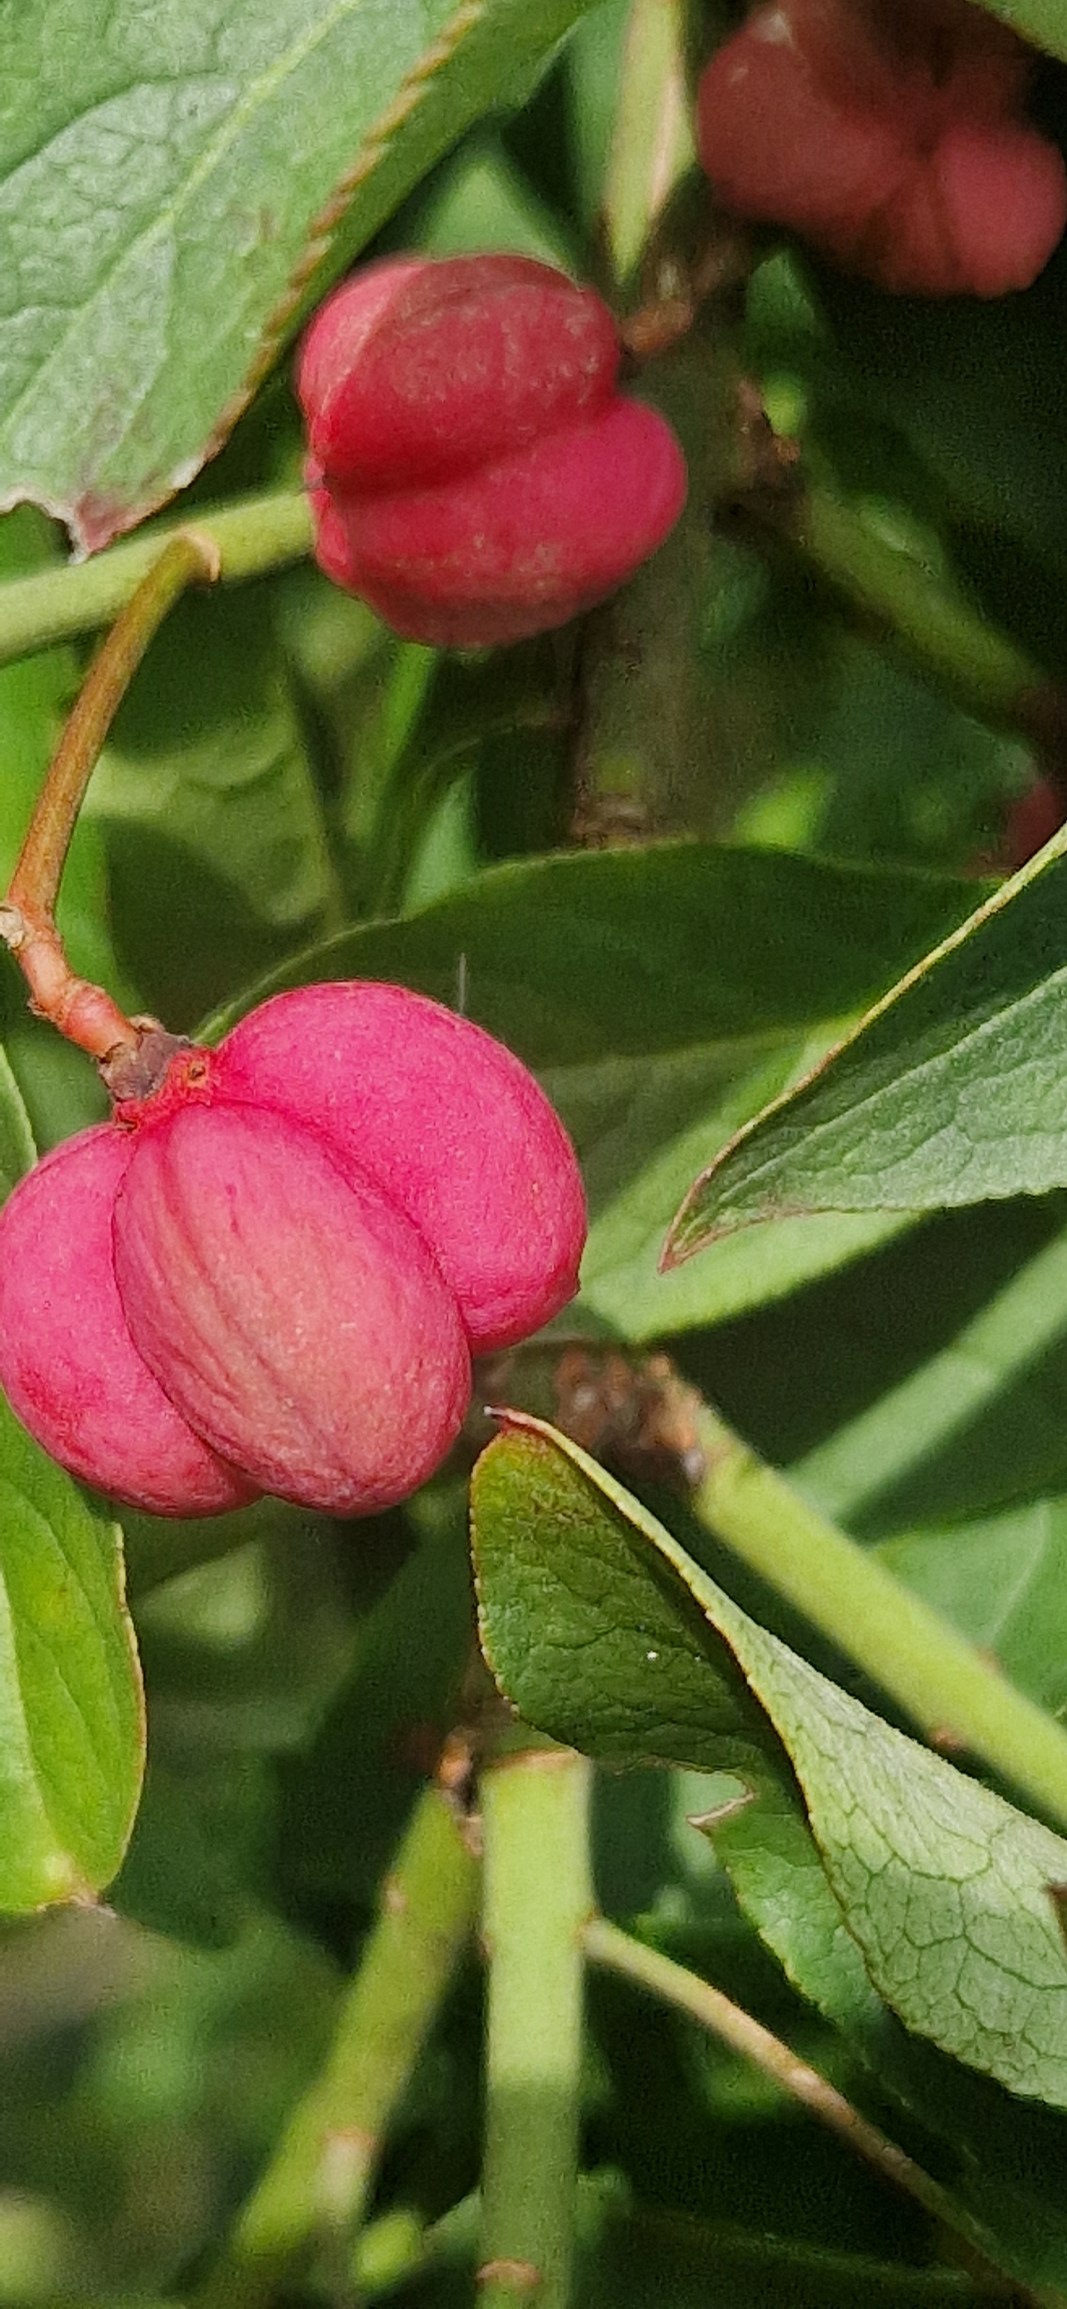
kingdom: Plantae
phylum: Tracheophyta
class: Magnoliopsida
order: Celastrales
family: Celastraceae
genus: Euonymus
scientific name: Euonymus europaeus
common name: Benved
